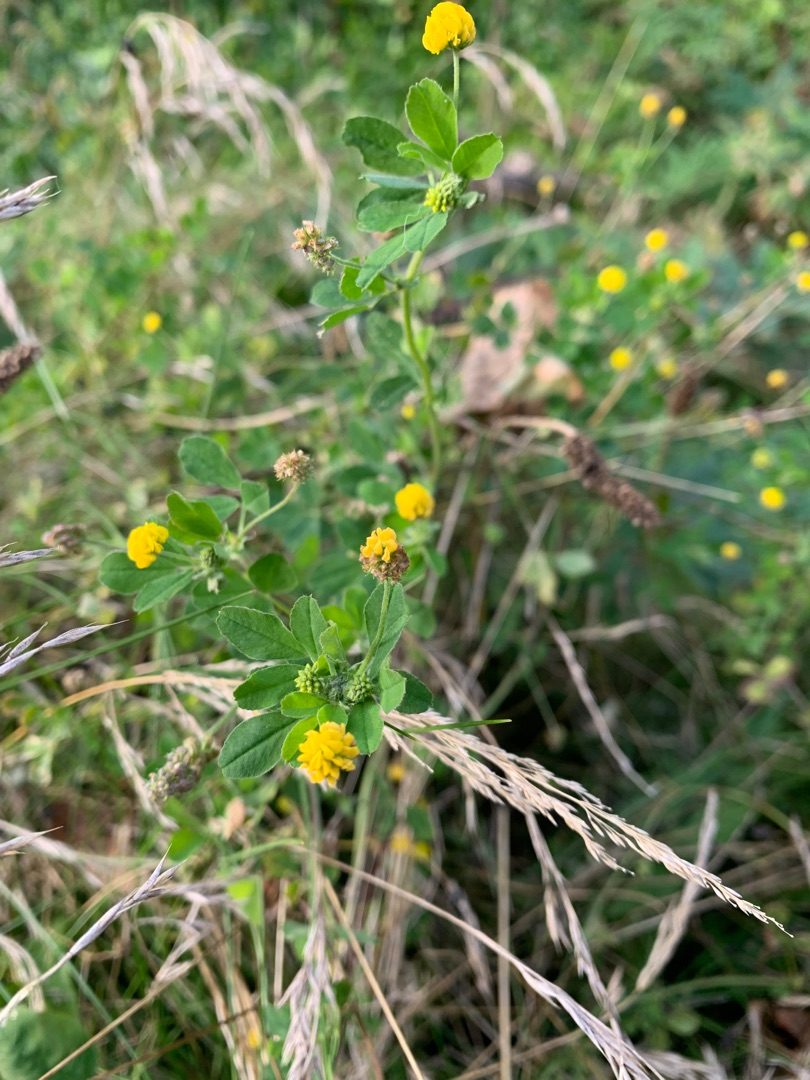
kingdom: Plantae
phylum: Tracheophyta
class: Magnoliopsida
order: Fabales
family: Fabaceae
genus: Medicago
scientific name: Medicago lupulina
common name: Humle-sneglebælg
